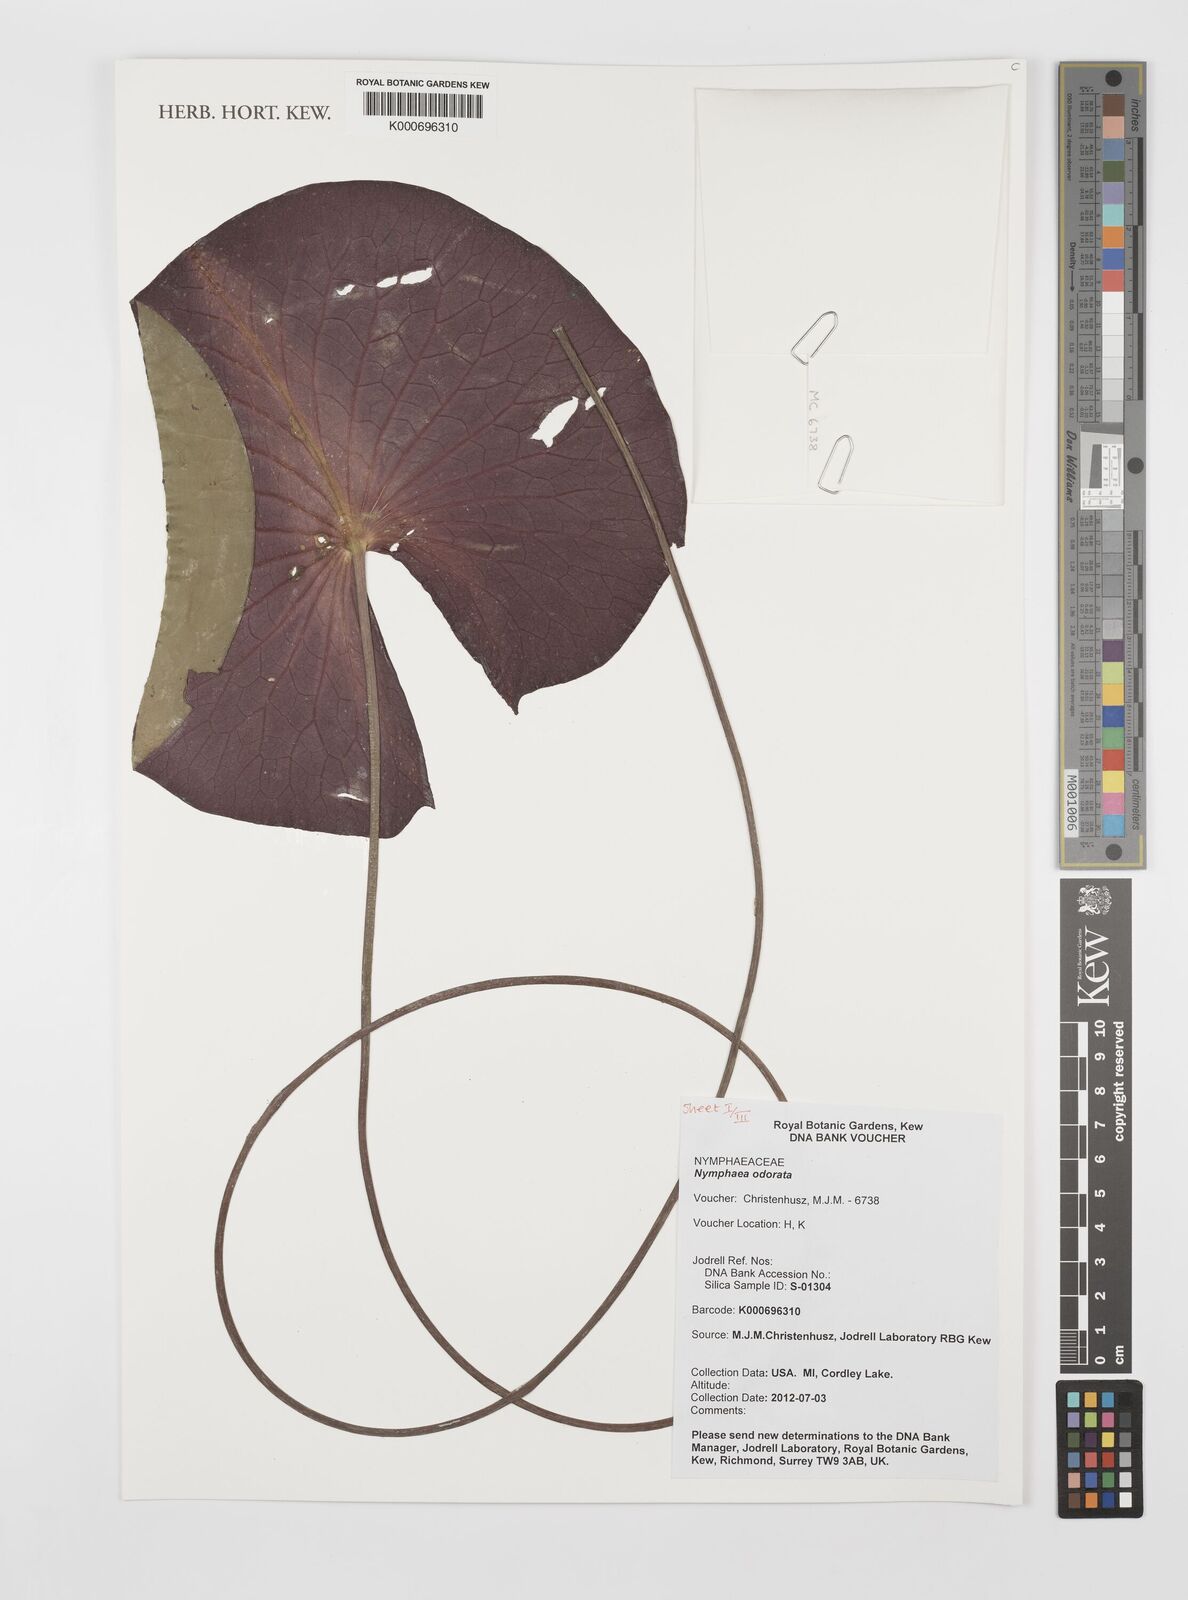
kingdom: Plantae
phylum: Tracheophyta
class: Magnoliopsida
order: Nymphaeales
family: Nymphaeaceae
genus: Nymphaea
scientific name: Nymphaea odorata
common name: Fragrant water-lily
